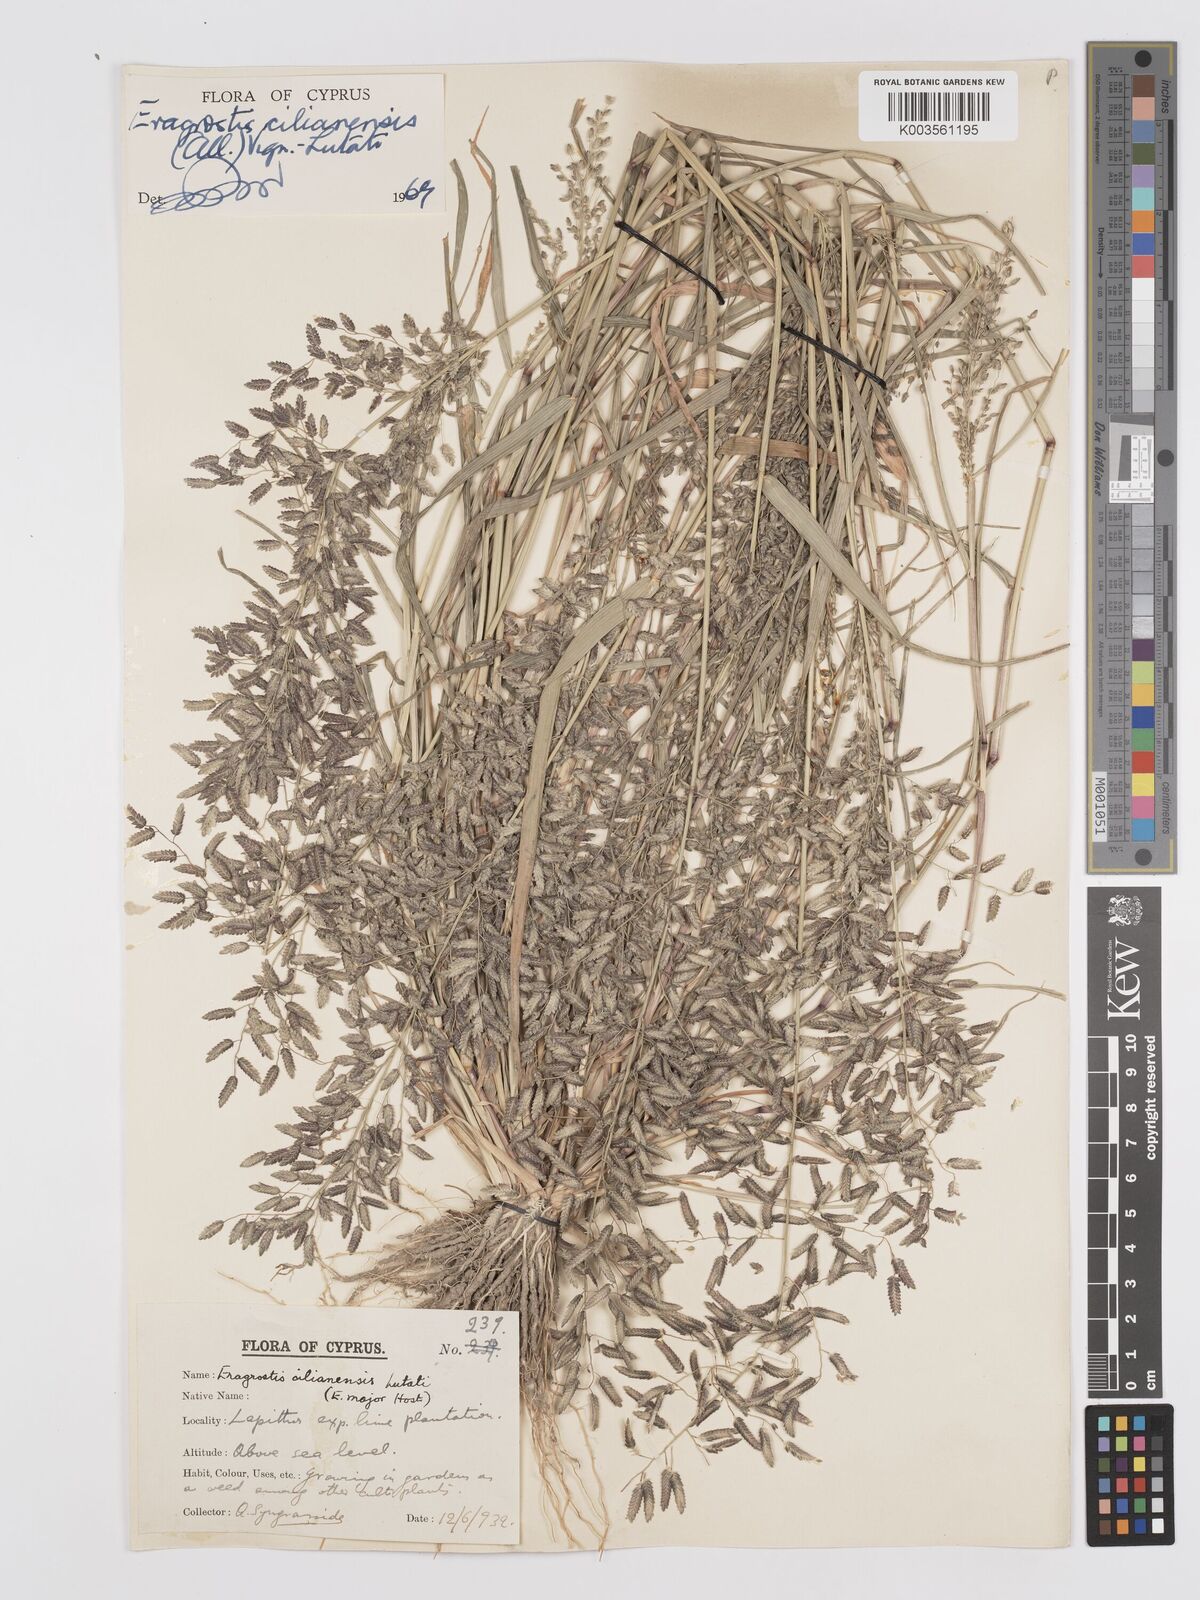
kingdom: Plantae
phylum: Tracheophyta
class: Liliopsida
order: Poales
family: Poaceae
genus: Eragrostis
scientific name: Eragrostis cilianensis
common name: Stinkgrass
